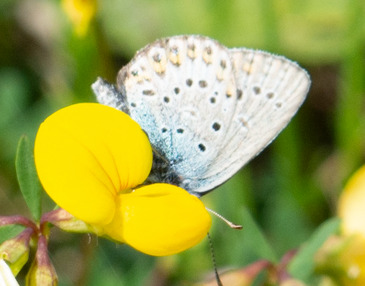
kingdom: Animalia
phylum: Arthropoda
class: Insecta
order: Lepidoptera
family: Lycaenidae
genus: Polyommatus
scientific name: Polyommatus icarus
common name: Almindelig blåfugl
